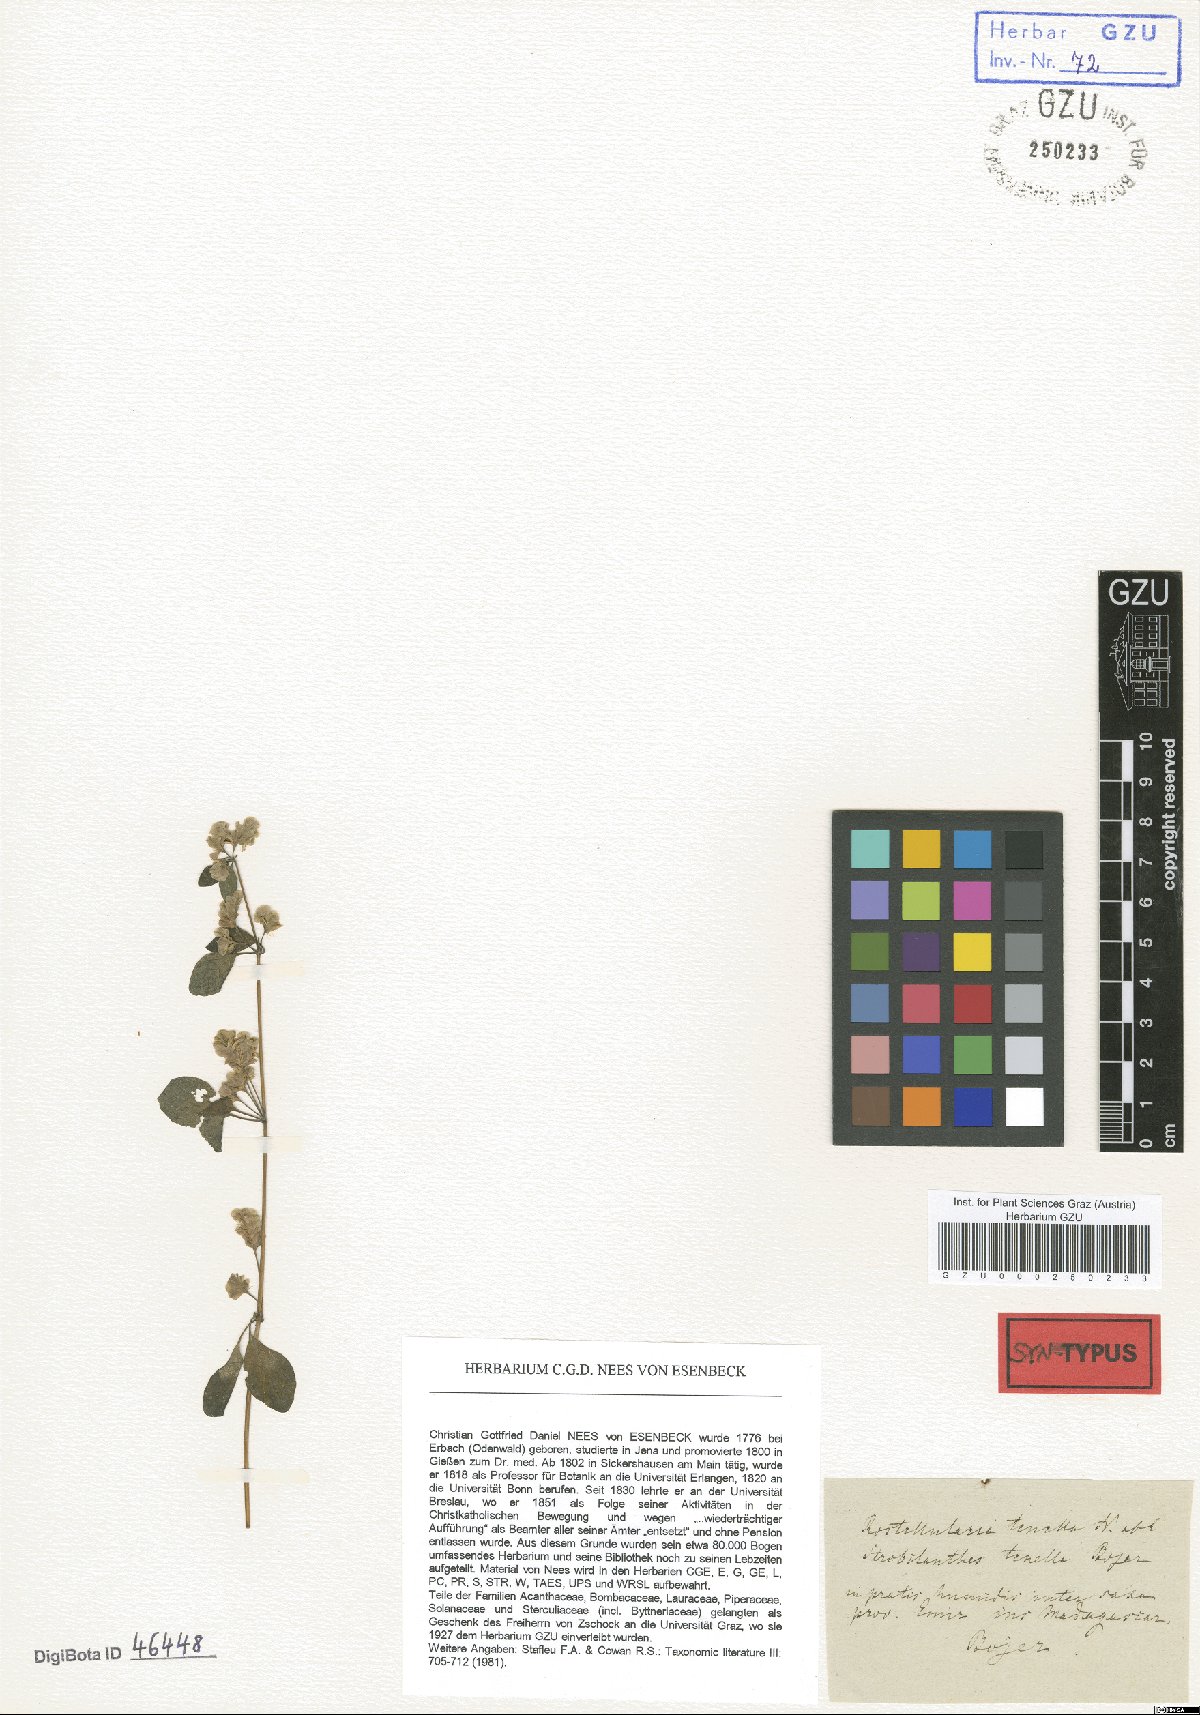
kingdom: Plantae
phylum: Tracheophyta
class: Magnoliopsida
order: Lamiales
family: Acanthaceae
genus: Anisostachya
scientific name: Anisostachya tenella
